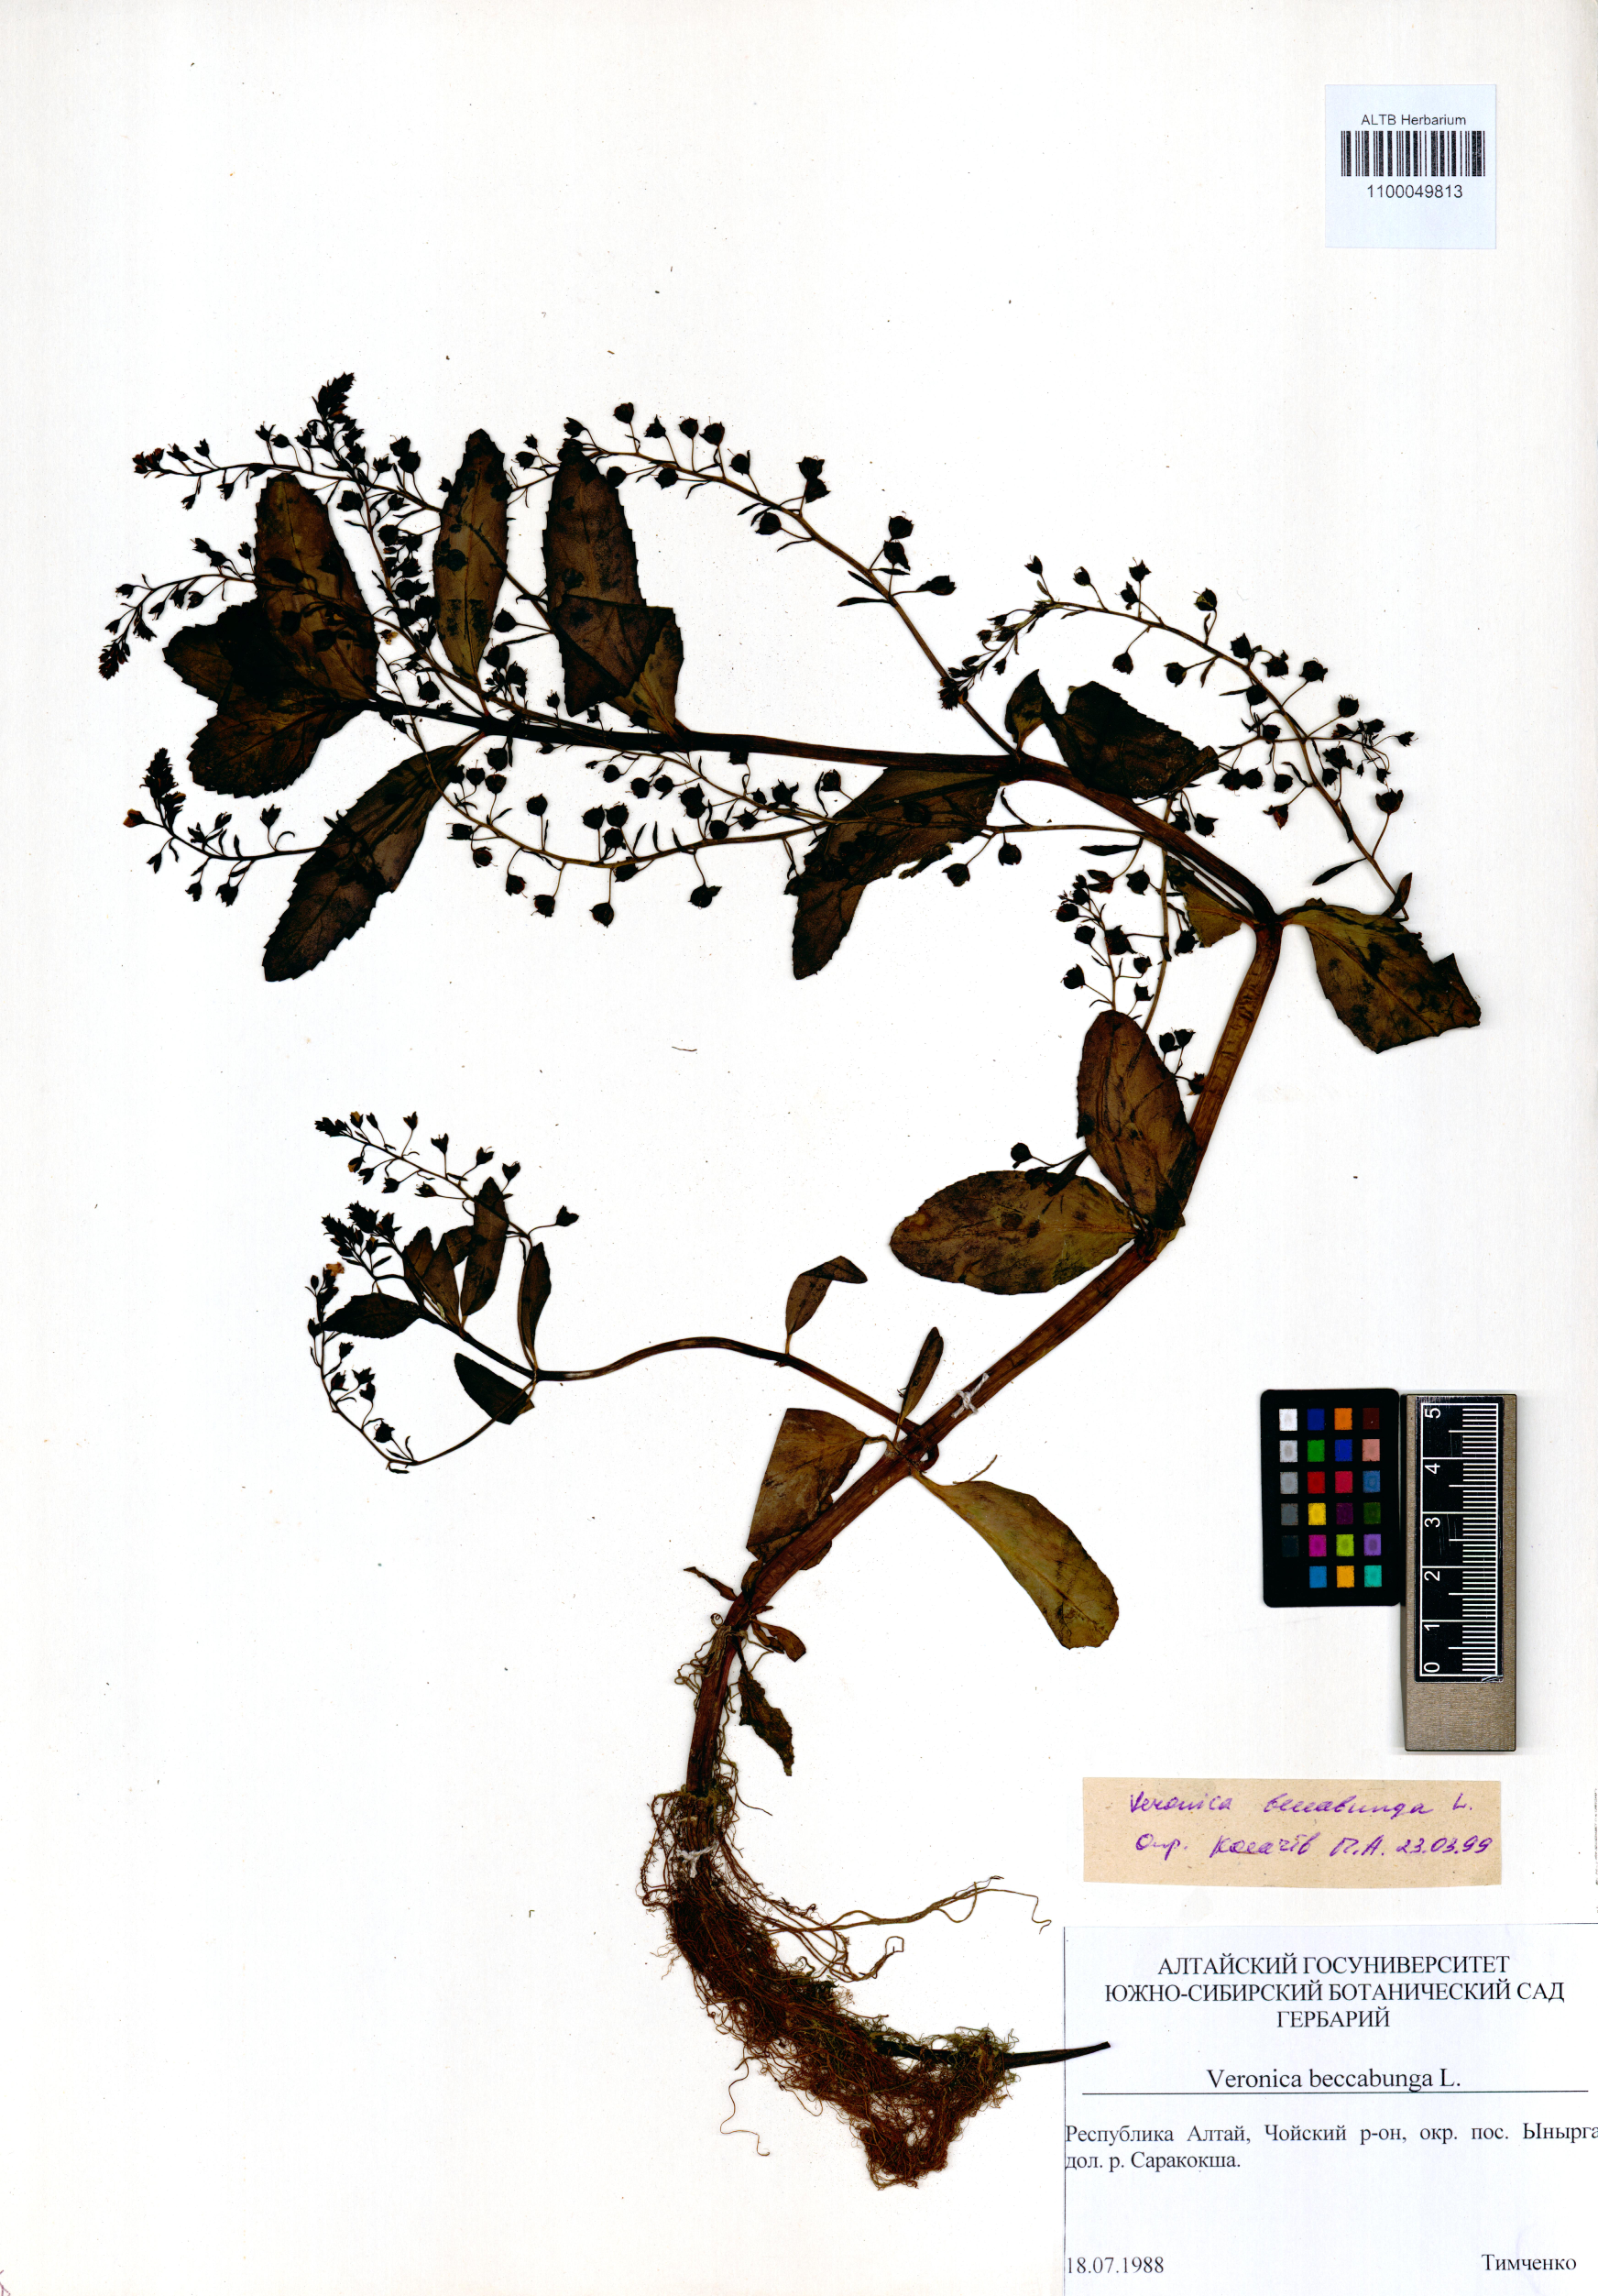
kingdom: Plantae
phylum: Tracheophyta
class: Magnoliopsida
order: Lamiales
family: Plantaginaceae
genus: Veronica
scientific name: Veronica beccabunga
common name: Brooklime
